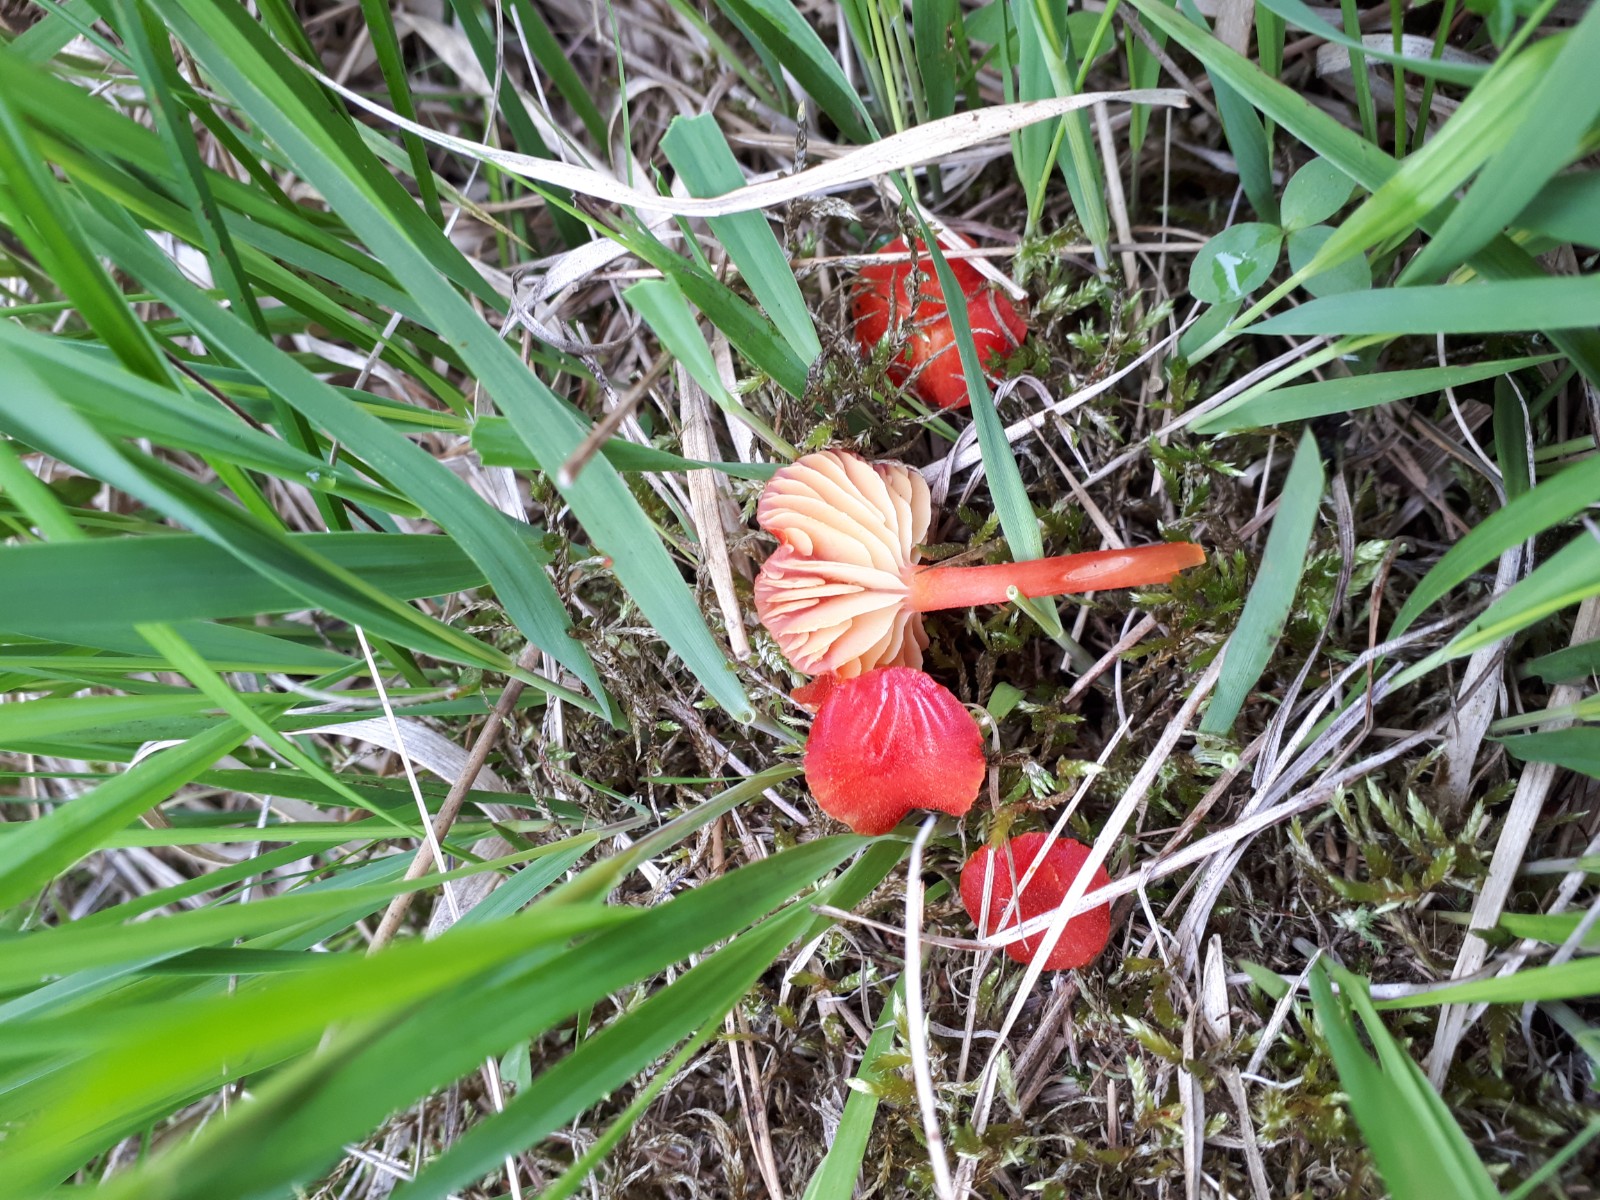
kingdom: Fungi
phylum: Basidiomycota
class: Agaricomycetes
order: Agaricales
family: Hygrophoraceae
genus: Hygrocybe
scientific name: Hygrocybe helobia
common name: hvidløgs-vokshat
